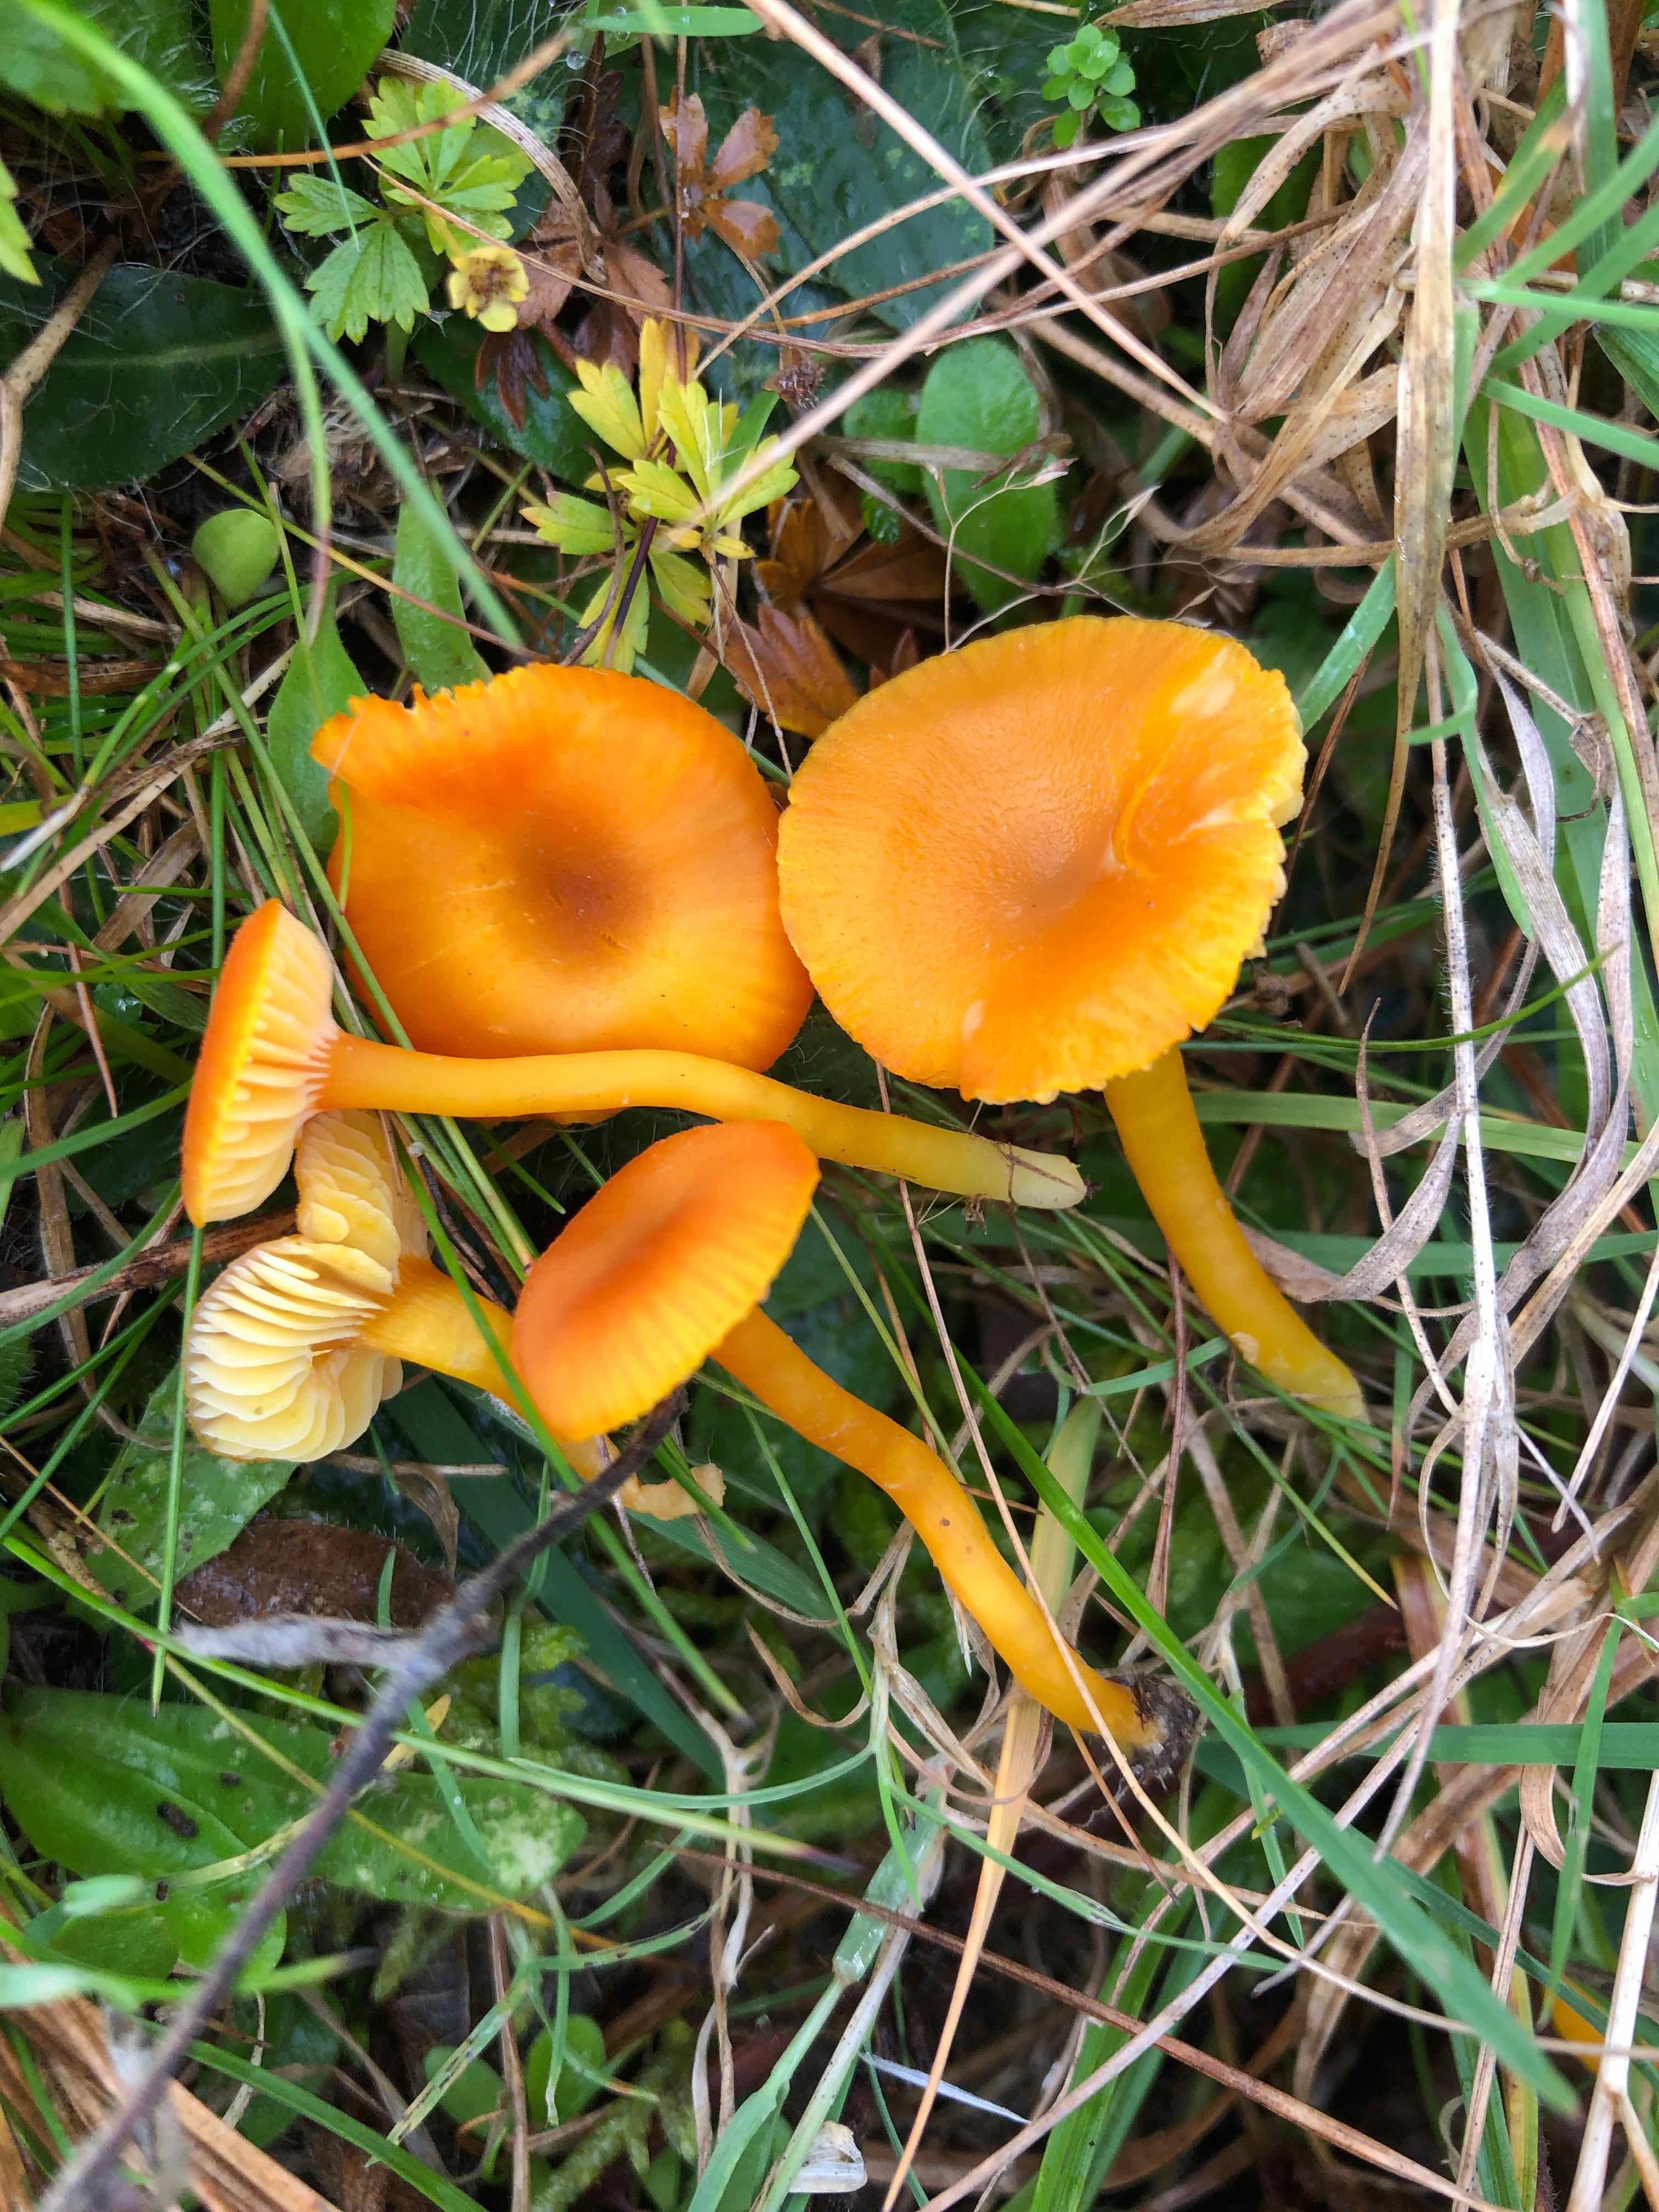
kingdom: Fungi
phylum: Basidiomycota
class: Agaricomycetes
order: Agaricales
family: Hygrophoraceae
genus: Hygrocybe
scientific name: Hygrocybe miniata
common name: mønje-vokshat
